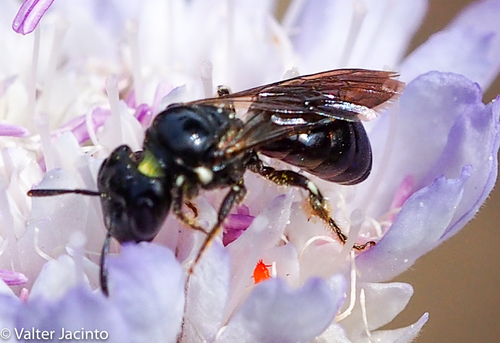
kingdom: Animalia
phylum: Arthropoda
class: Insecta
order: Hymenoptera
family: Apidae
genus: Ceratina
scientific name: Ceratina cucurbitina
